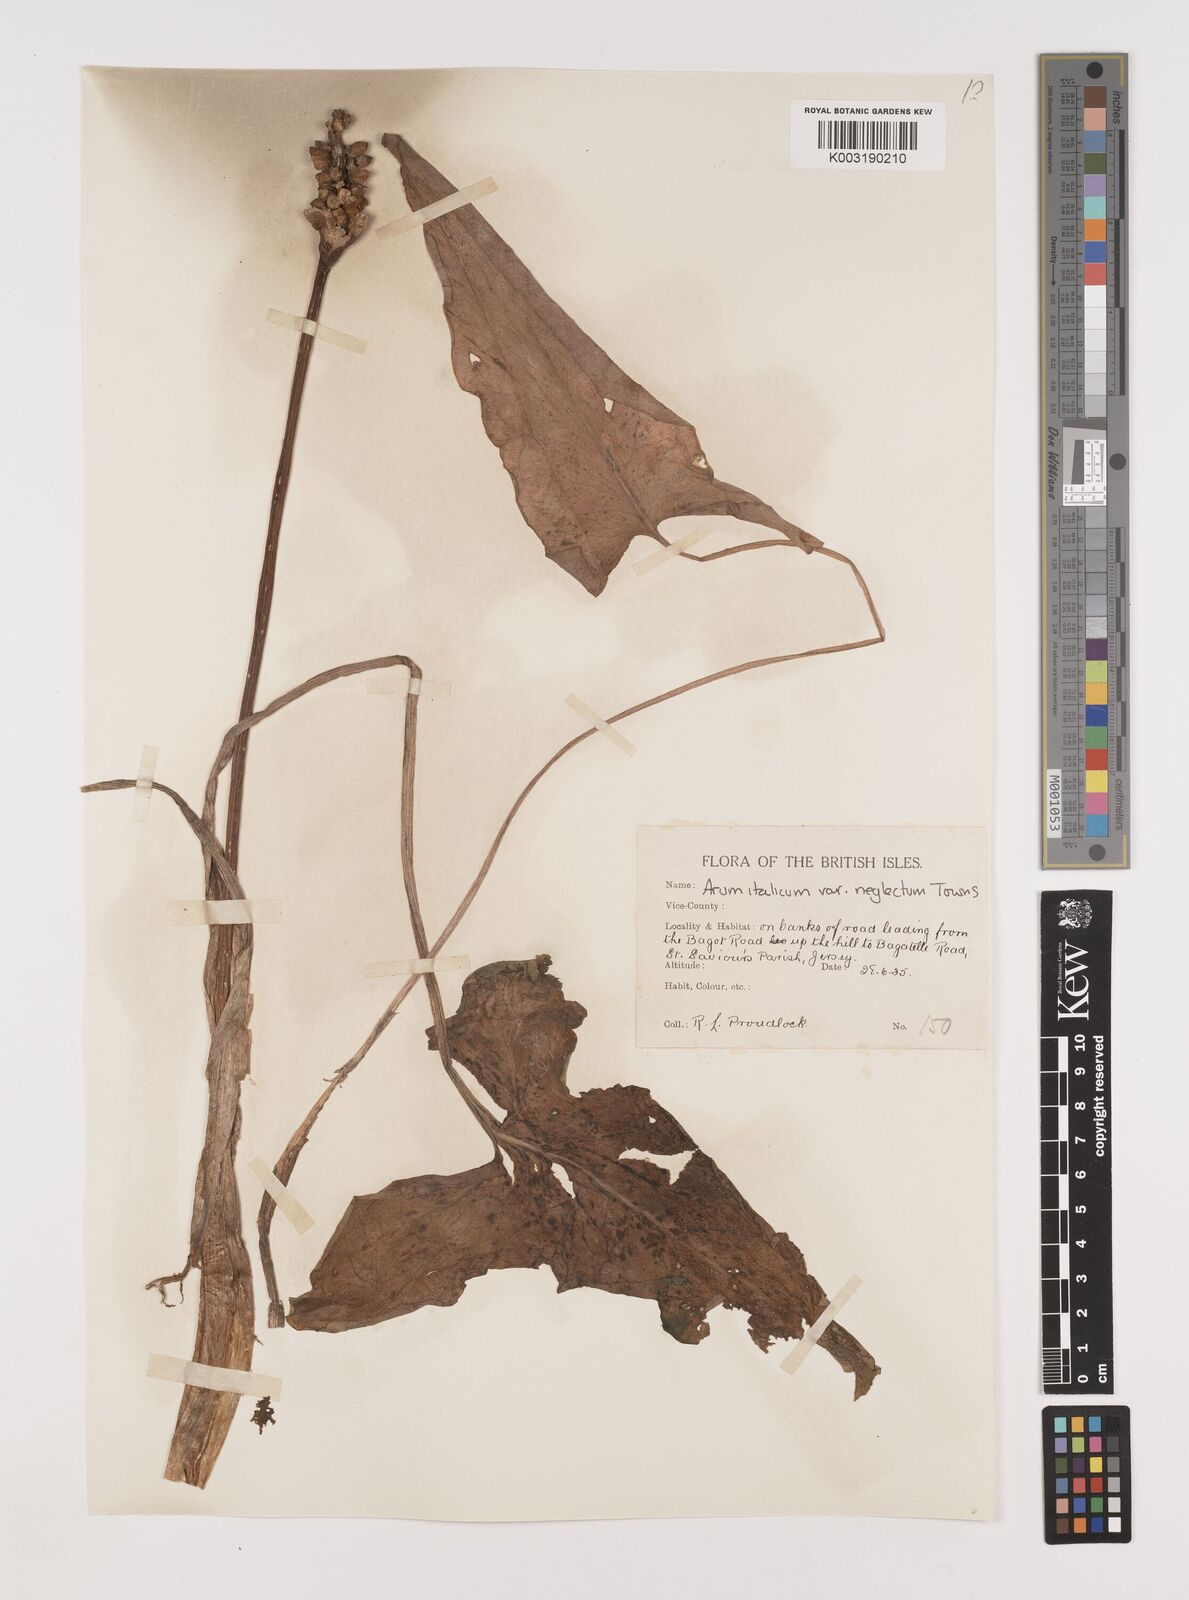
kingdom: Plantae
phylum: Tracheophyta
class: Liliopsida
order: Alismatales
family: Araceae
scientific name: Araceae
